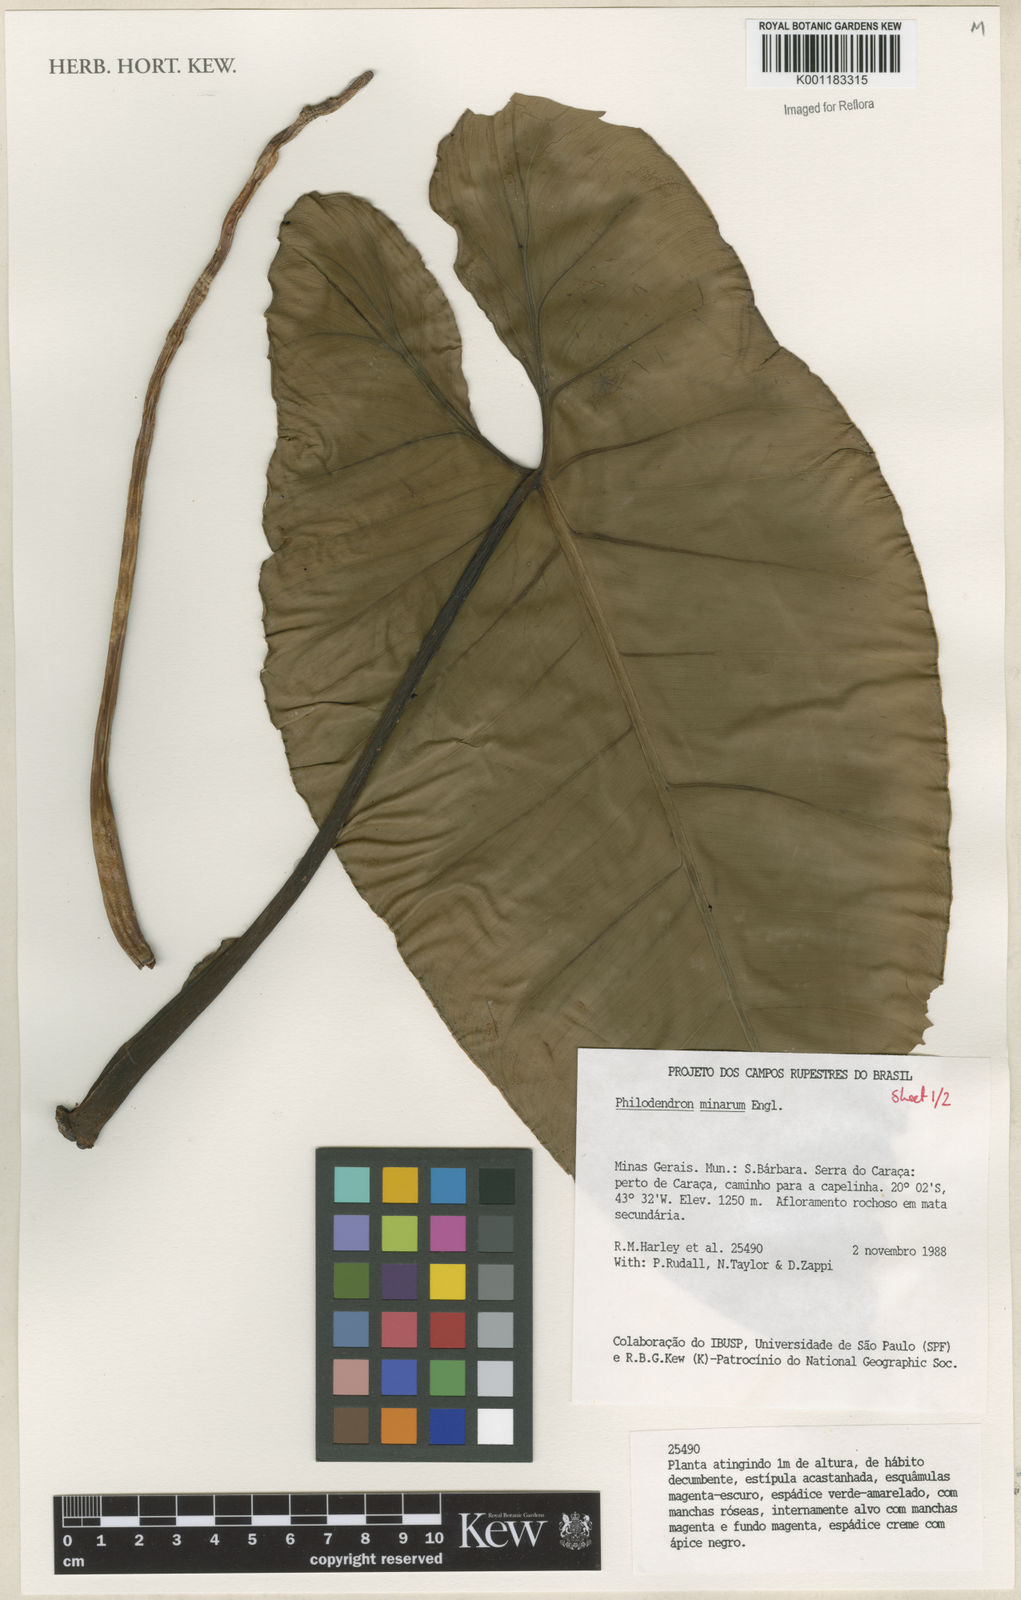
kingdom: Plantae
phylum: Tracheophyta
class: Liliopsida
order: Alismatales
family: Araceae
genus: Philodendron
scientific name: Philodendron minarum
